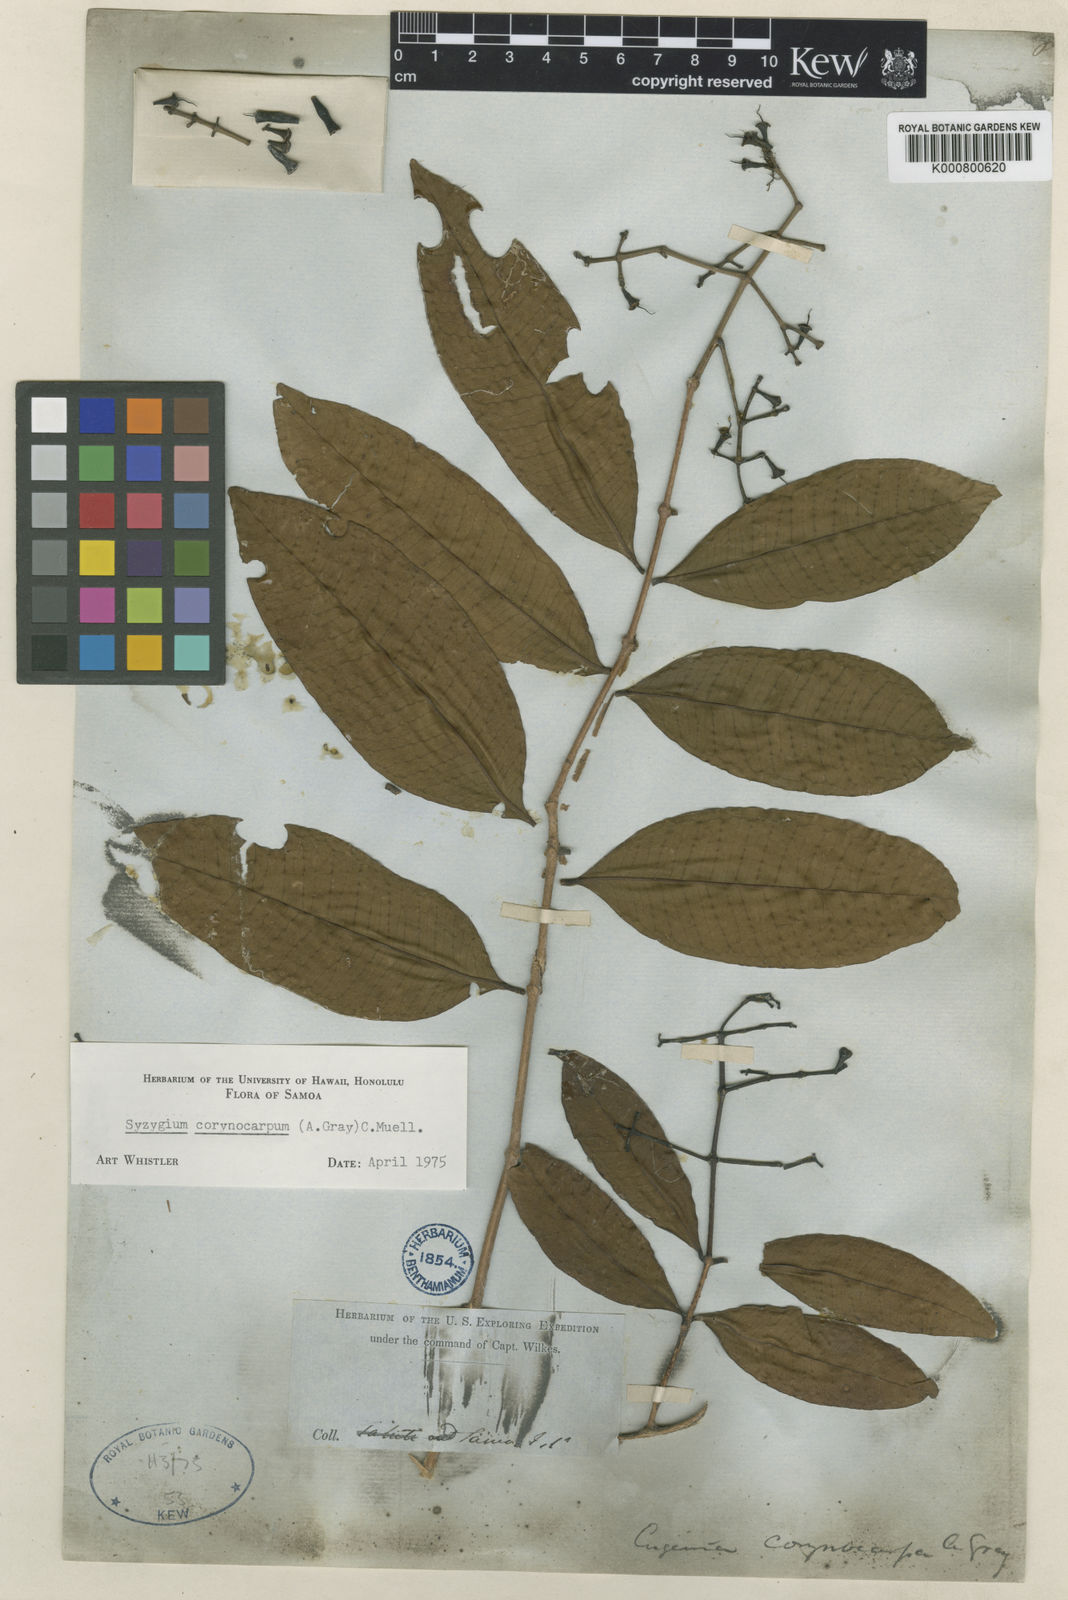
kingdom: Plantae
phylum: Tracheophyta
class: Magnoliopsida
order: Myrtales
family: Myrtaceae
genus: Syzygium
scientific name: Syzygium
